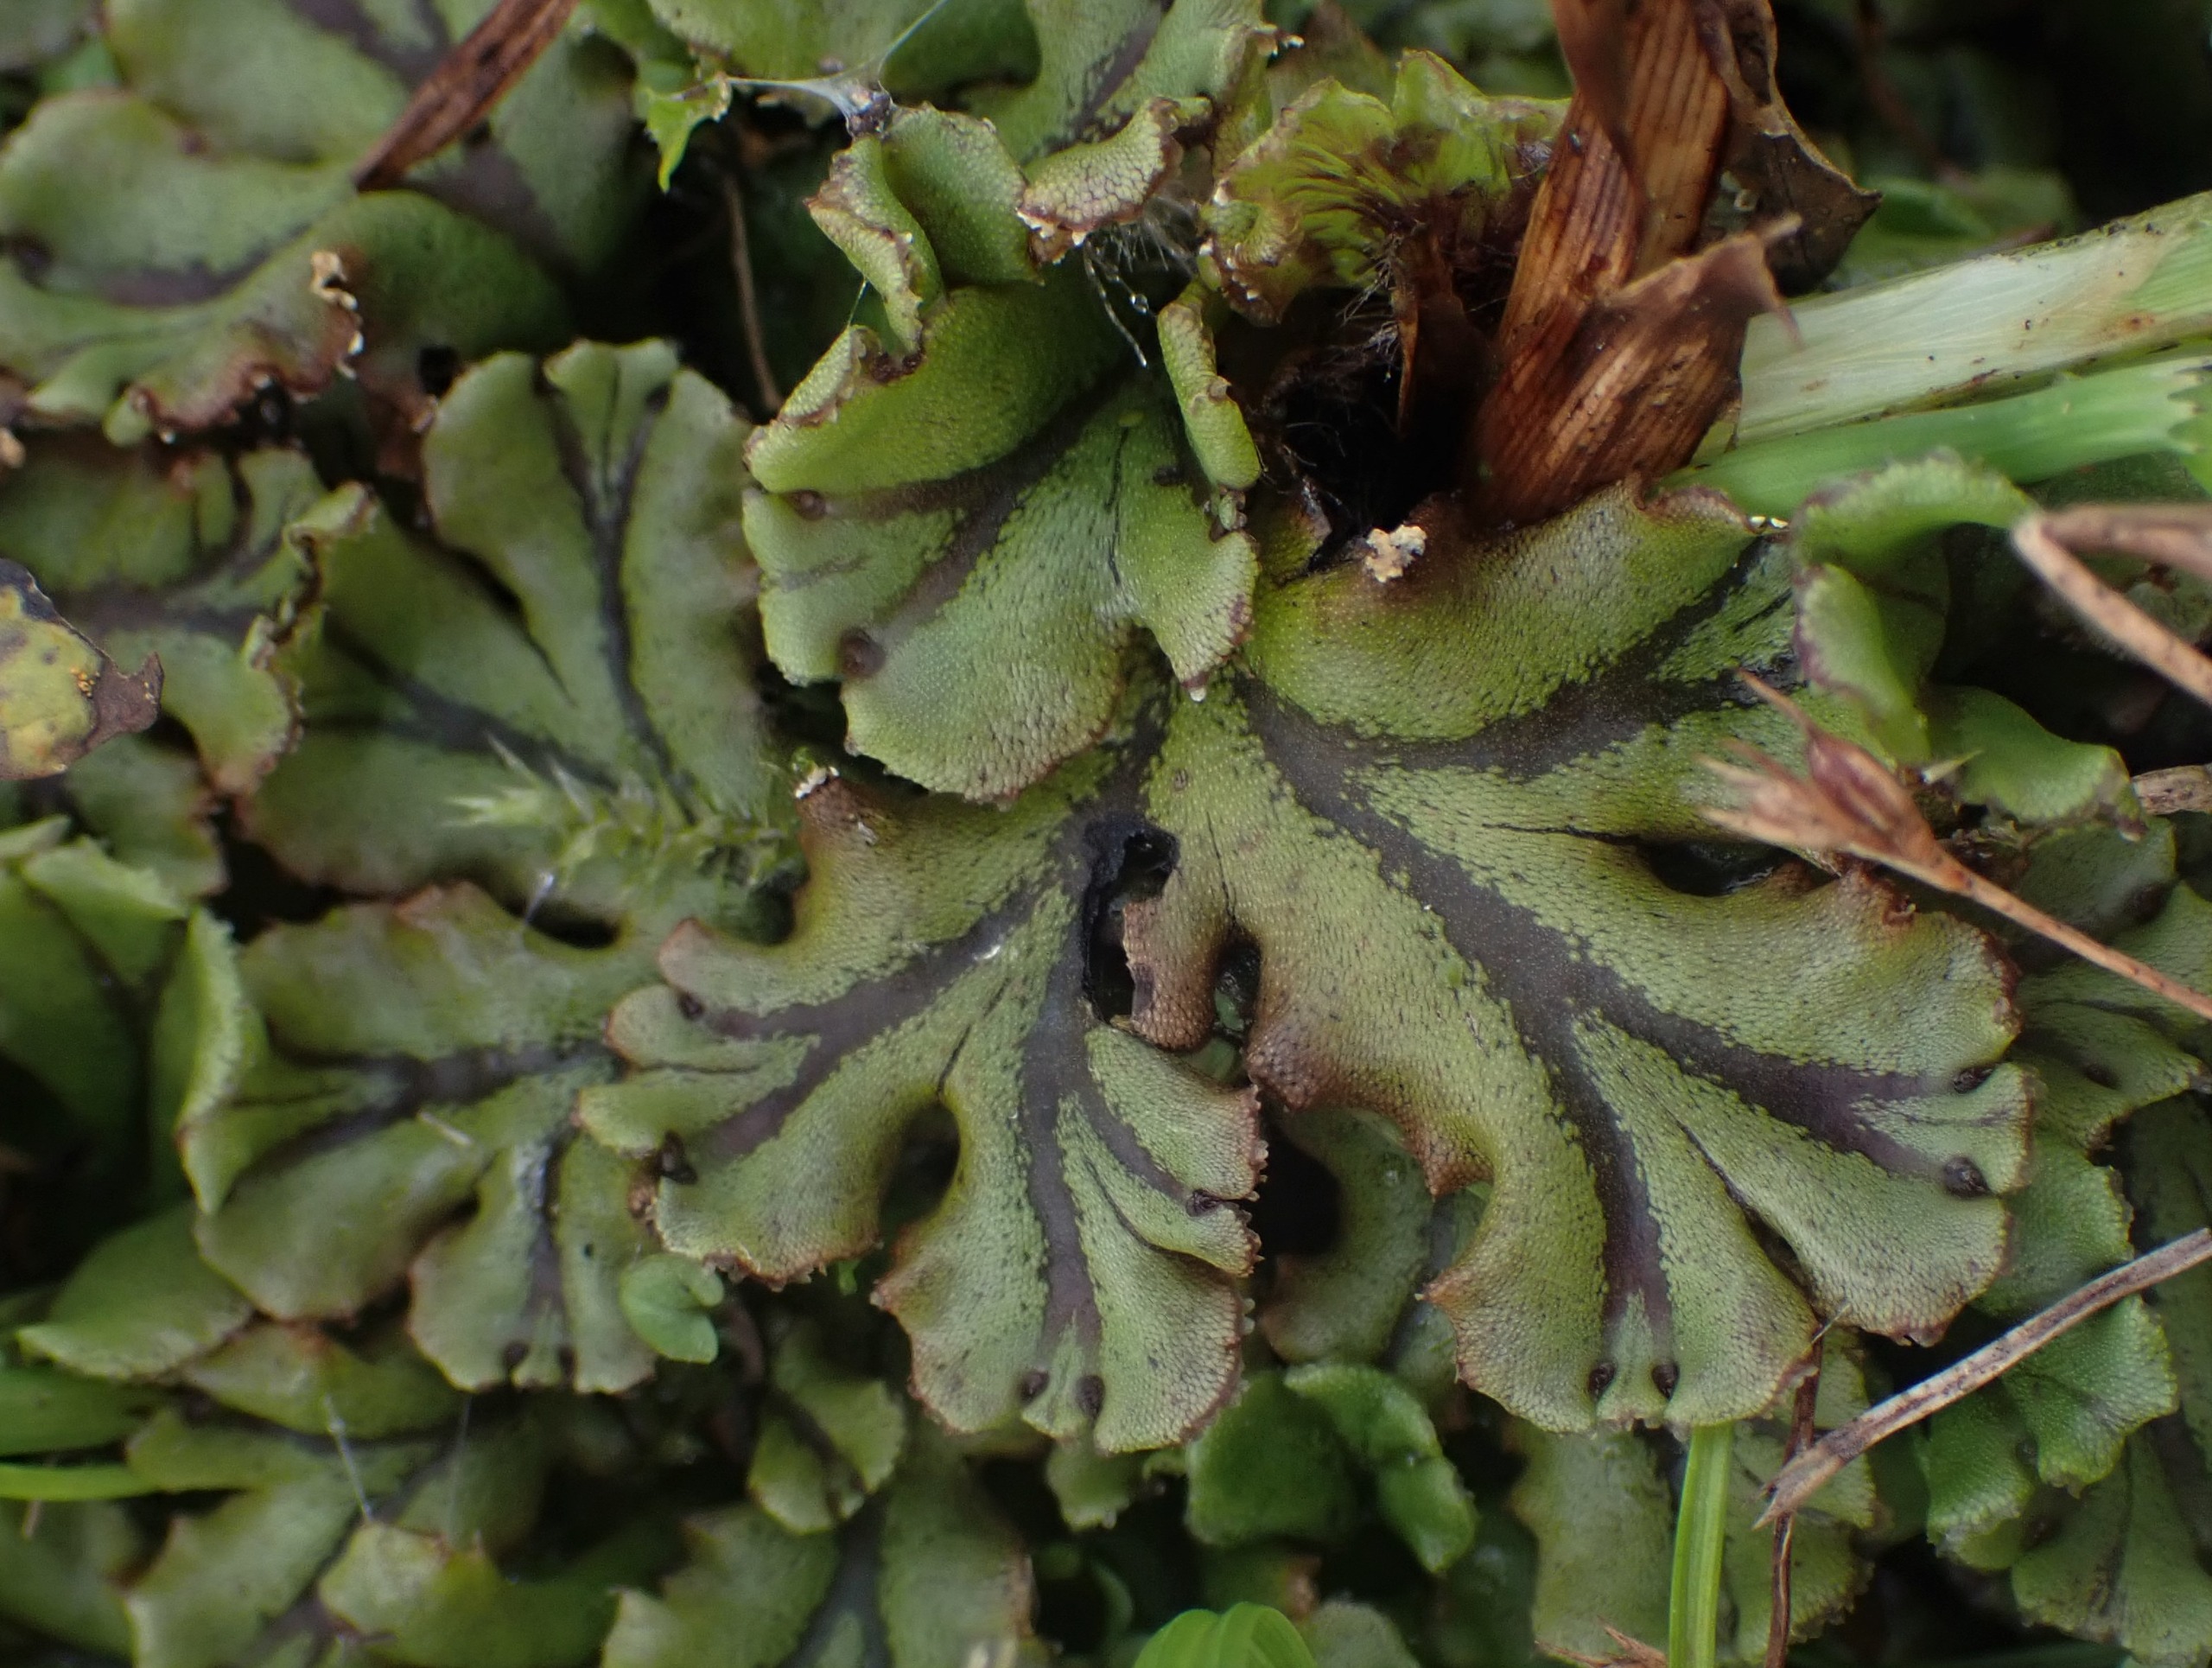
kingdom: Plantae
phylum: Marchantiophyta
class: Marchantiopsida
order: Marchantiales
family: Marchantiaceae
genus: Marchantia
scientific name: Marchantia polymorpha
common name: Mose-lungemos
